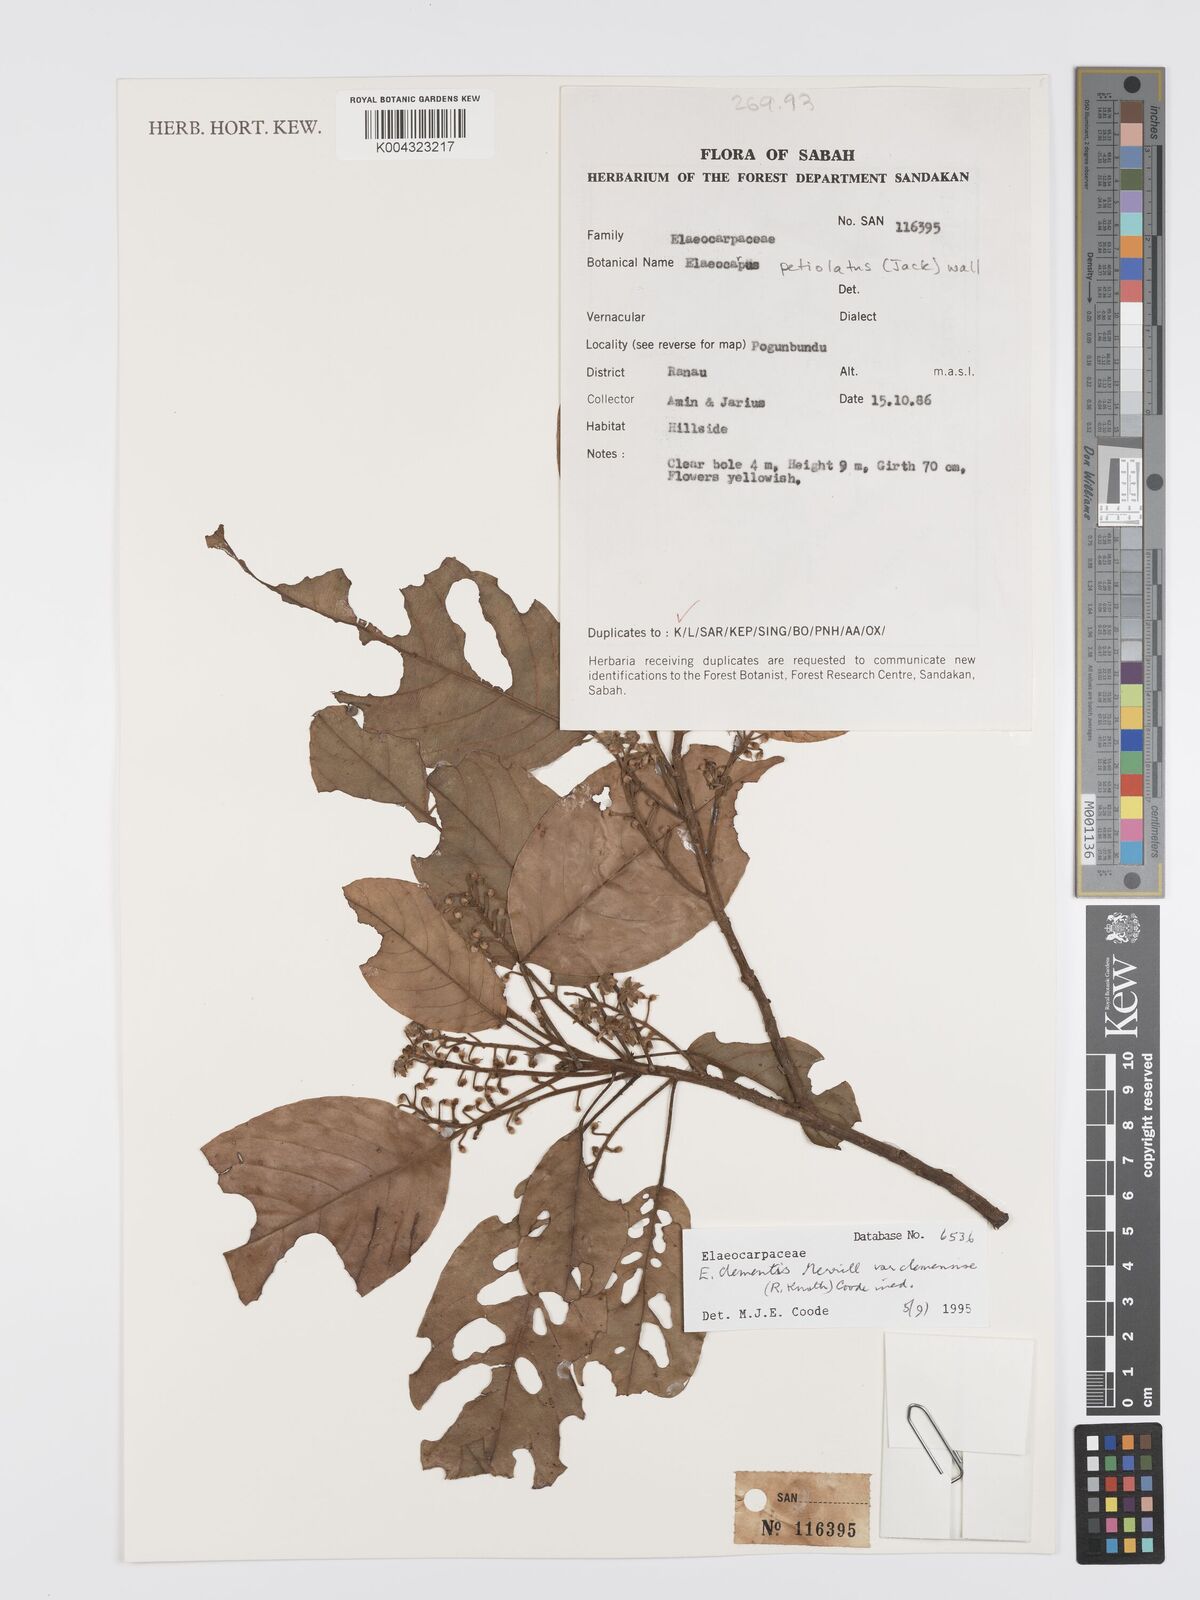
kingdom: Plantae
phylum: Tracheophyta
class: Magnoliopsida
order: Oxalidales
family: Elaeocarpaceae
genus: Elaeocarpus
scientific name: Elaeocarpus clementis
